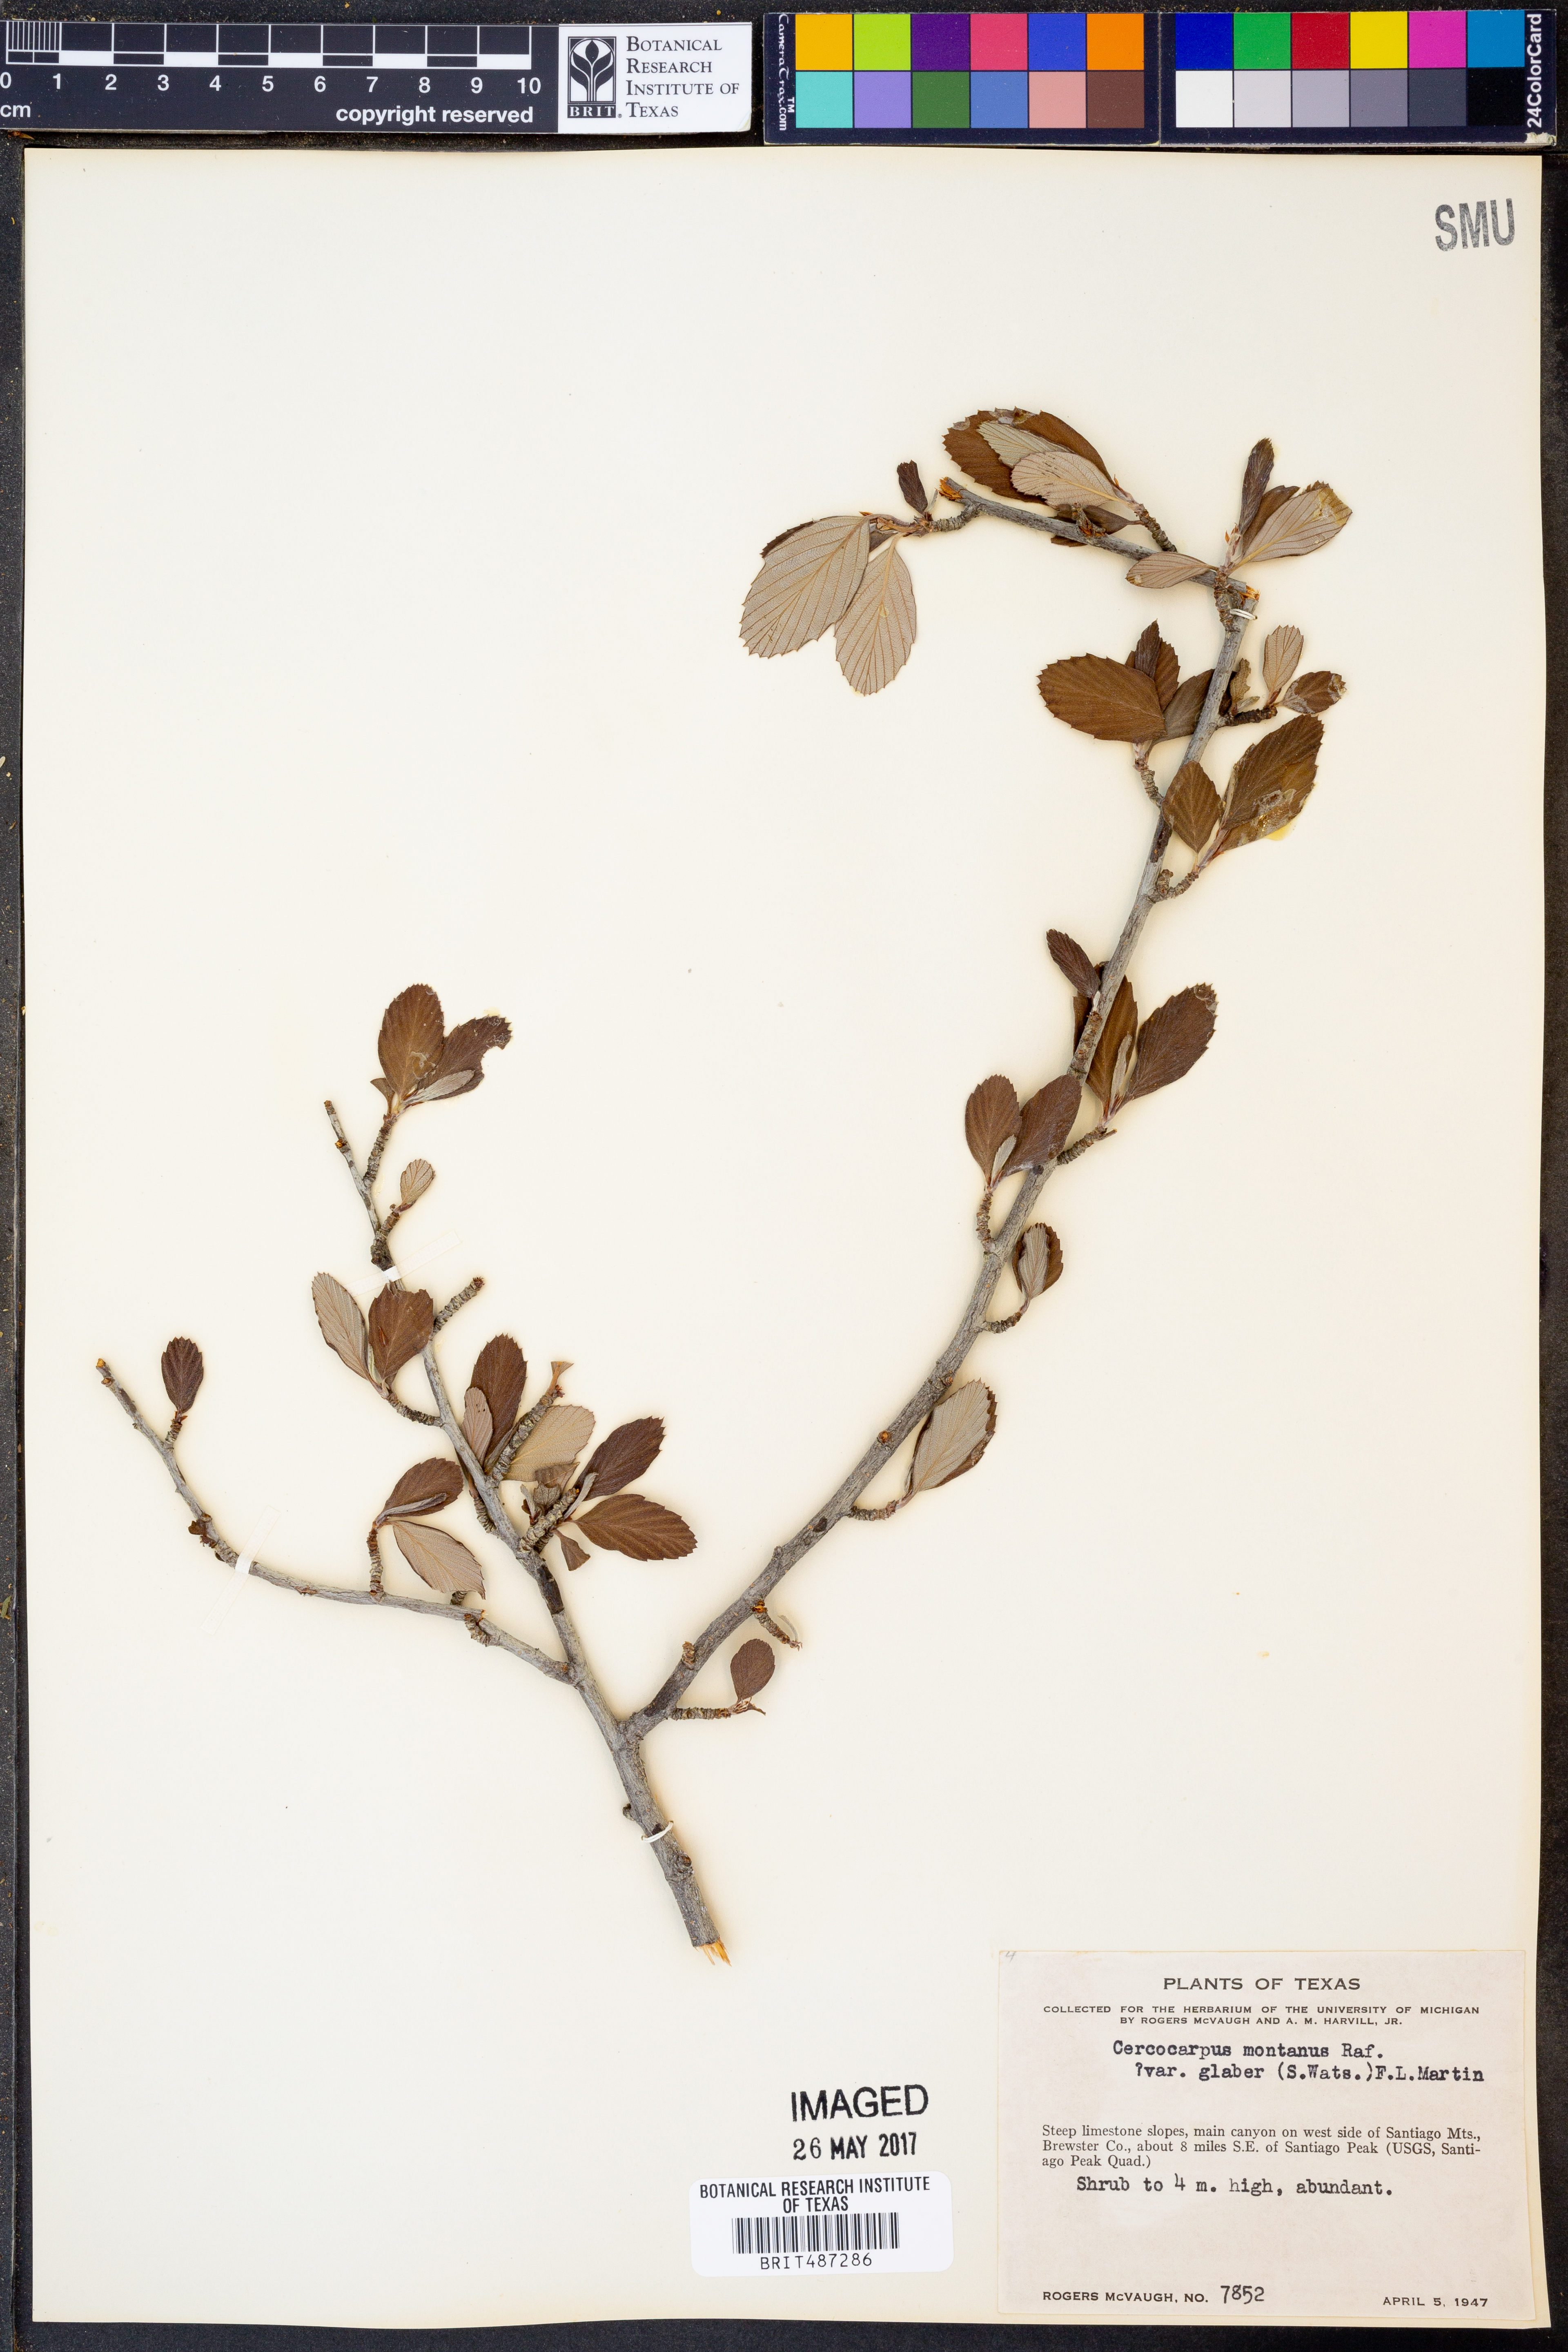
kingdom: Plantae
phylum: Tracheophyta
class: Magnoliopsida
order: Rosales
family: Rosaceae
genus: Cercocarpus
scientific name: Cercocarpus betuloides
